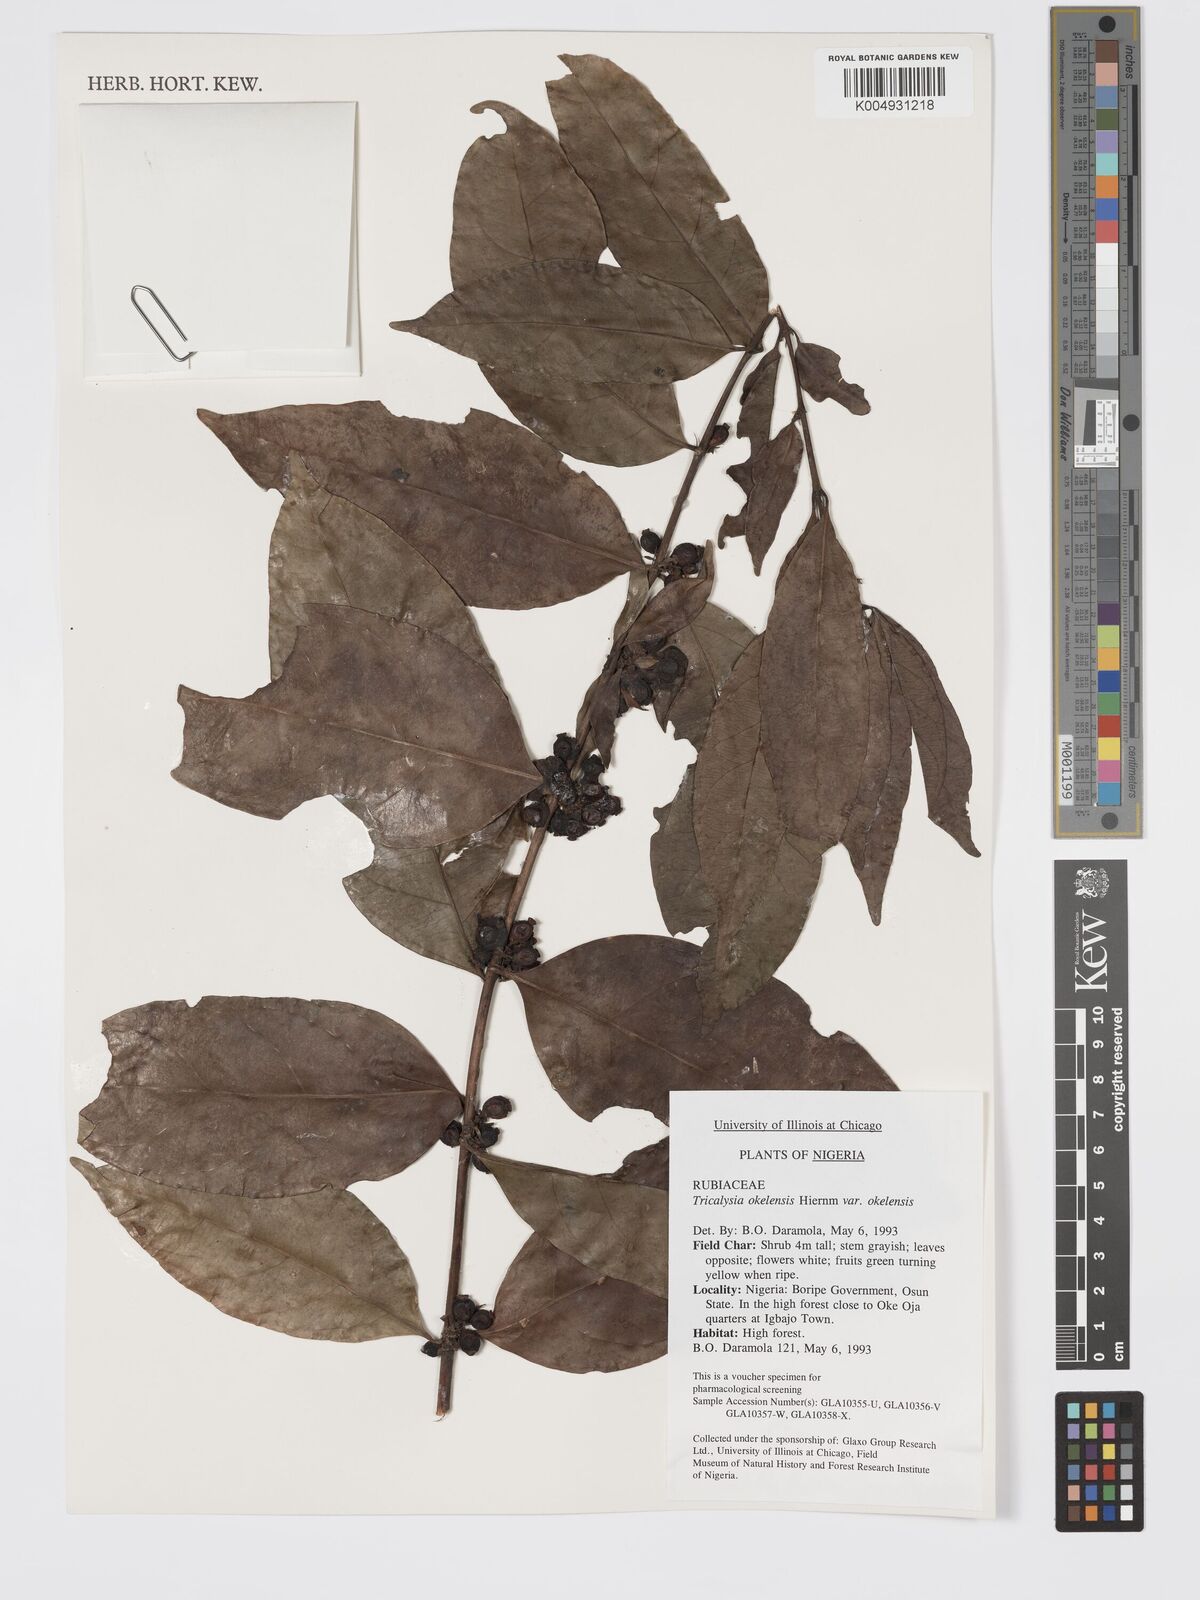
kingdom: Plantae
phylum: Tracheophyta
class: Magnoliopsida
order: Gentianales
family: Rubiaceae
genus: Tricalysia
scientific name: Tricalysia okelensis
